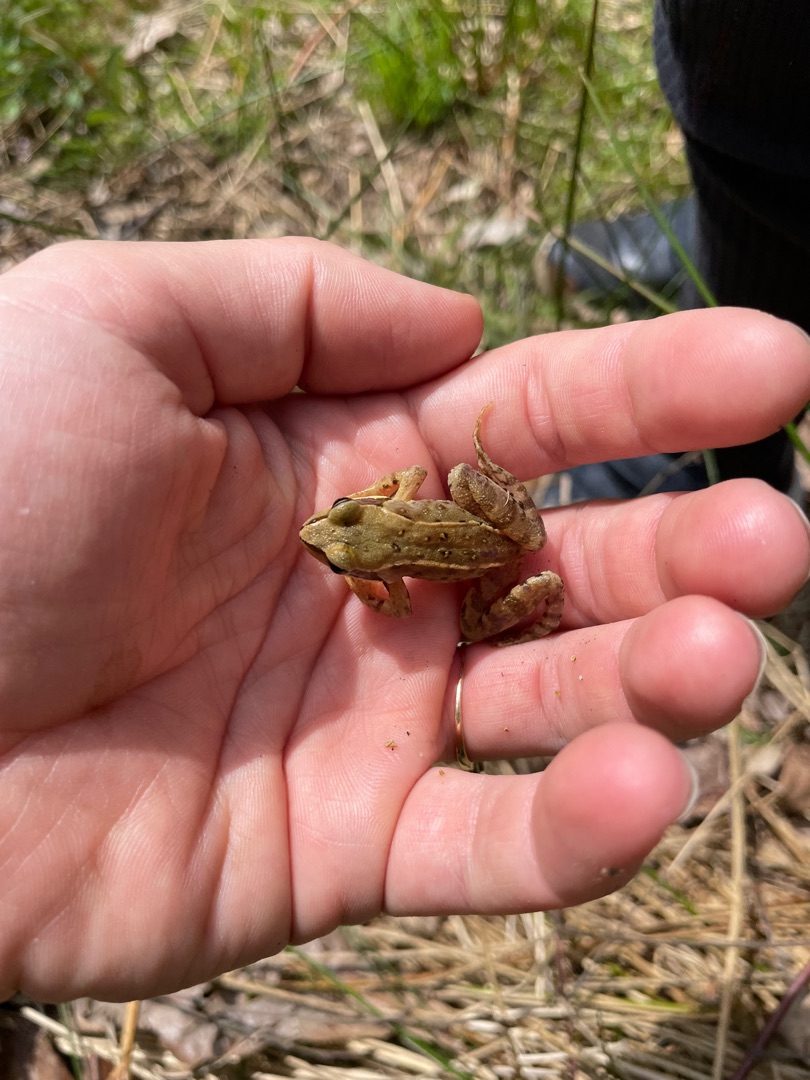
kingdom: Animalia
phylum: Chordata
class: Amphibia
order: Anura
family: Ranidae
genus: Rana
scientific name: Rana temporaria
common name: Butsnudet frø
